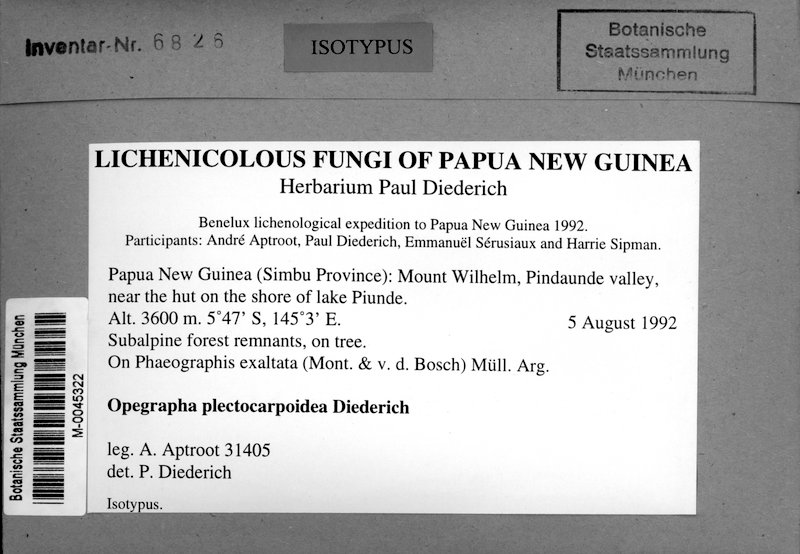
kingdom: Fungi
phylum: Ascomycota
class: Lecanoromycetes
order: Ostropales
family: Graphidaceae
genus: Leiorreuma
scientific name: Leiorreuma exaltatum
